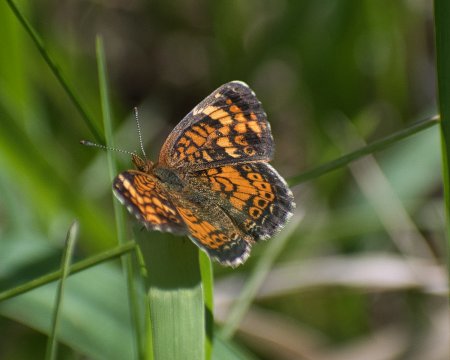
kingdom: Animalia
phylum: Arthropoda
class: Insecta
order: Lepidoptera
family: Nymphalidae
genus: Phyciodes
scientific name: Phyciodes tharos
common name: Northern Crescent
